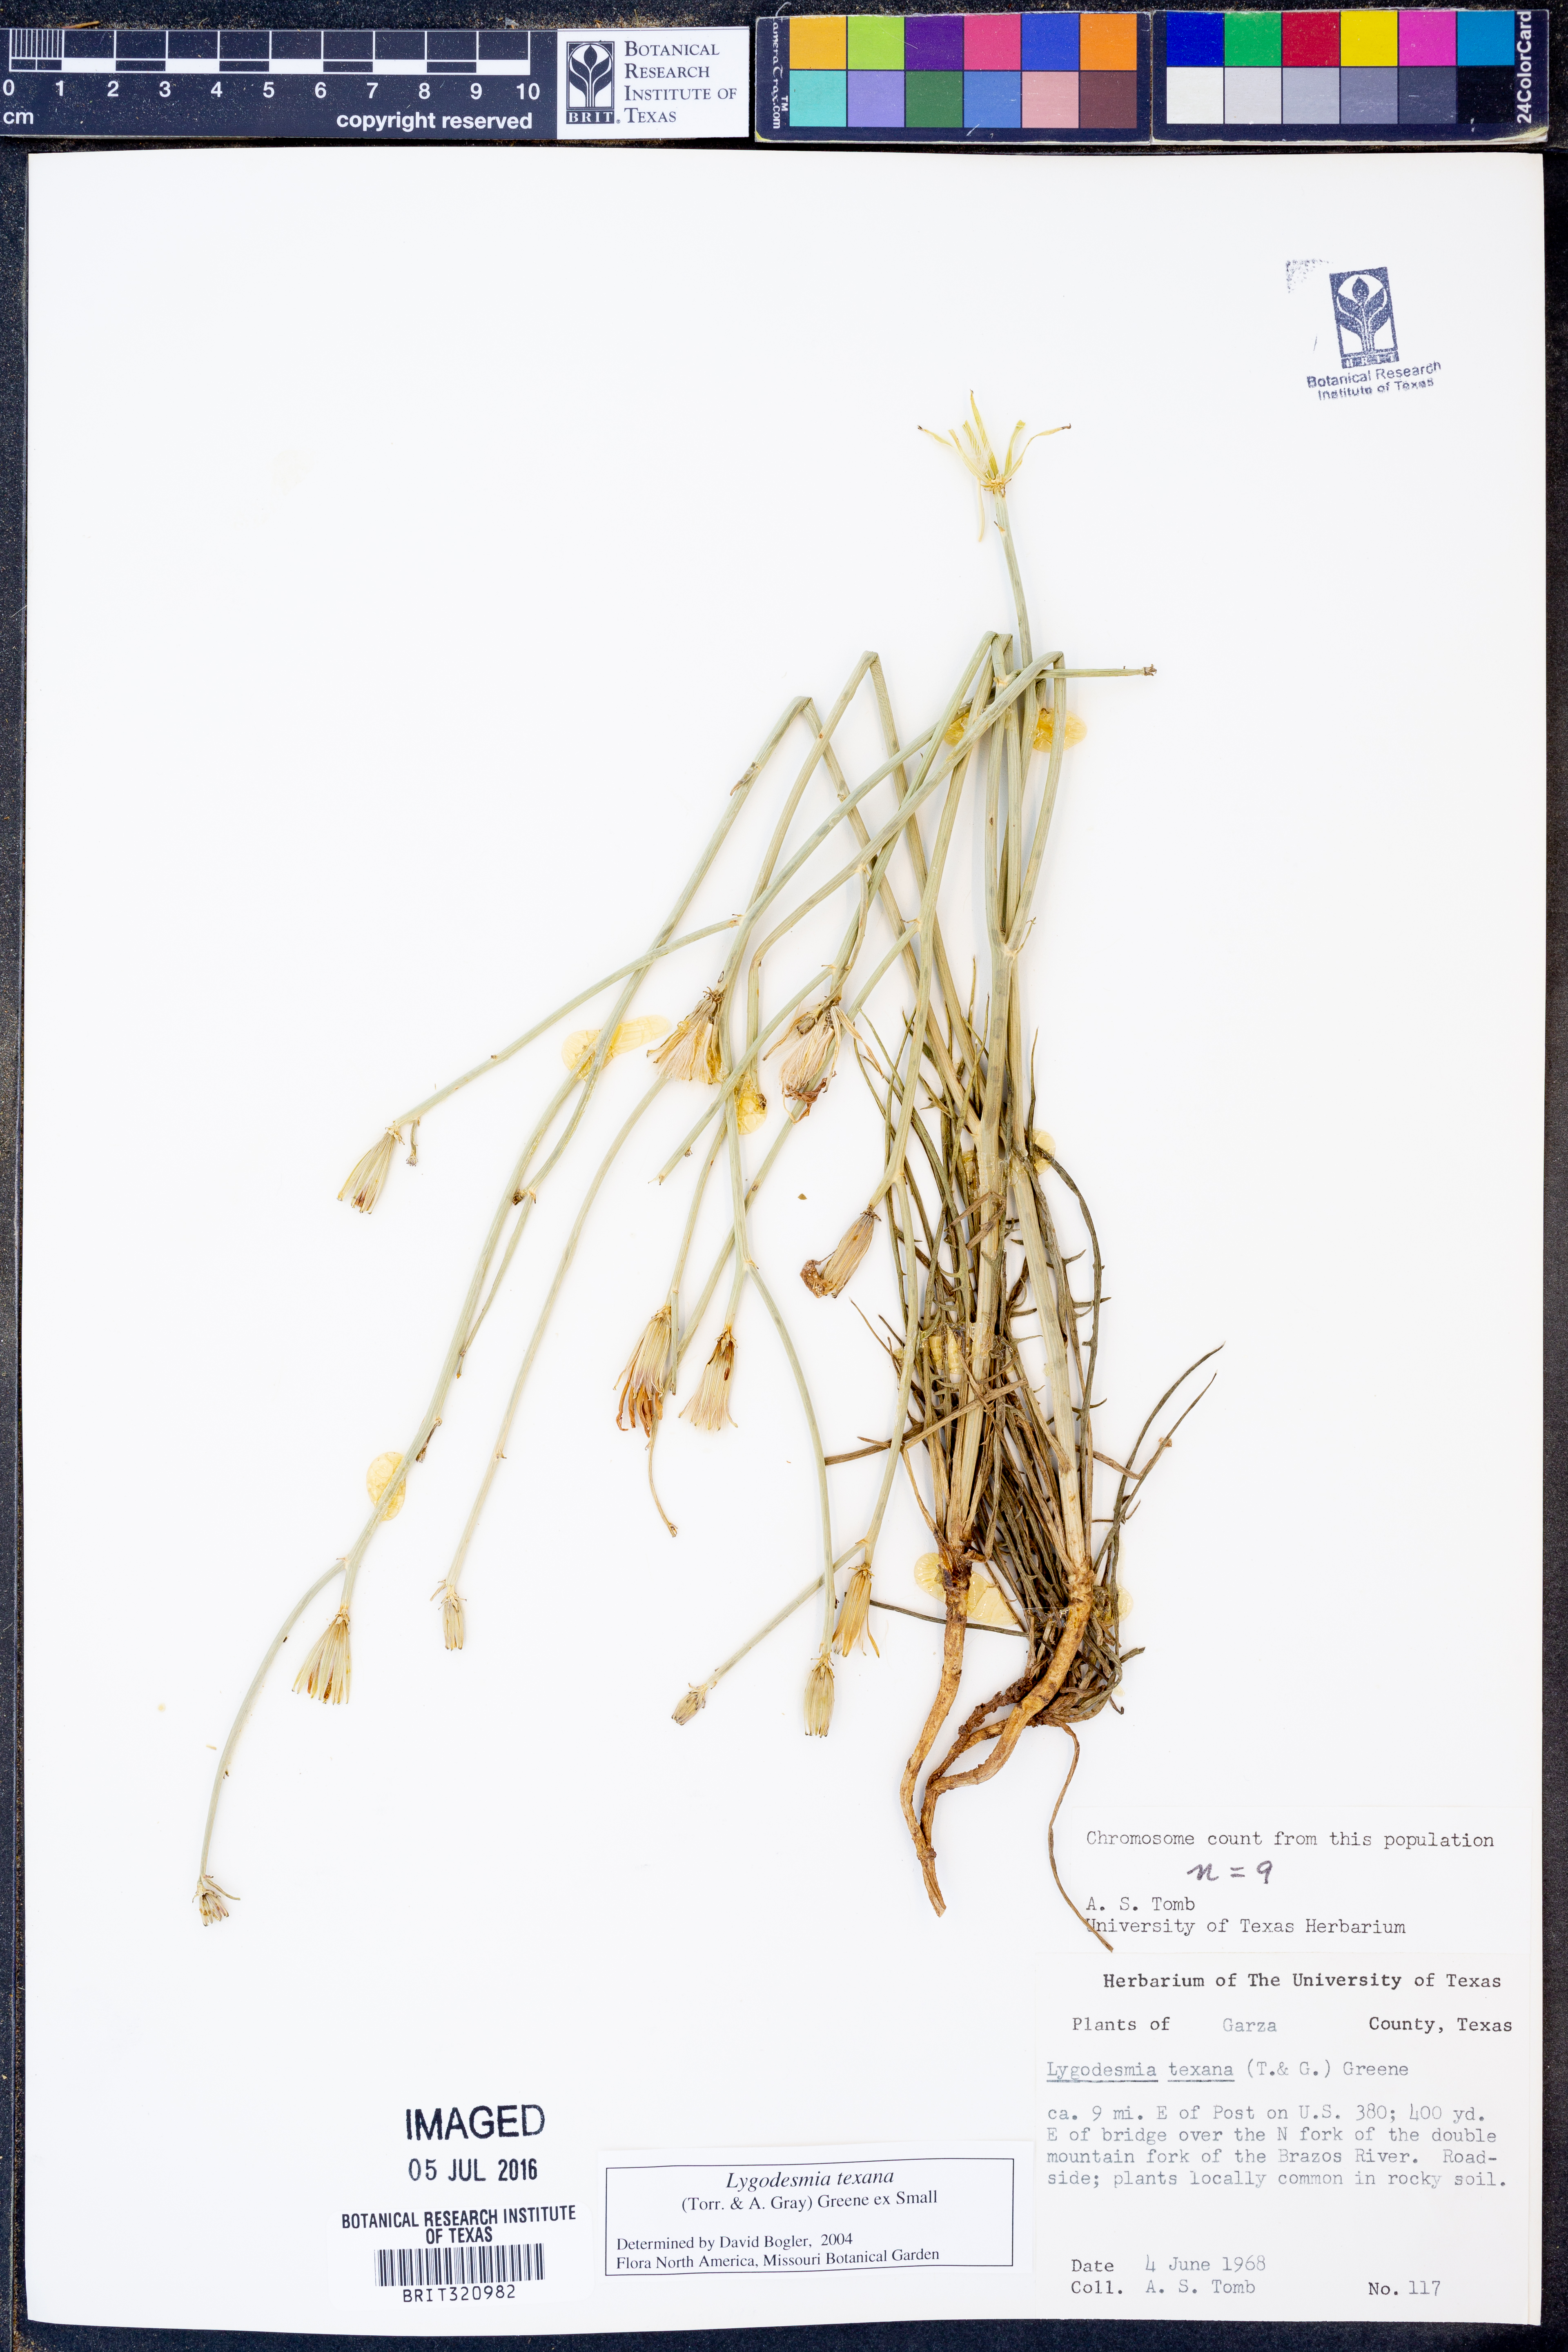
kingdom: Plantae
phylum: Tracheophyta
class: Magnoliopsida
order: Asterales
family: Asteraceae
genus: Lygodesmia
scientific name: Lygodesmia texana
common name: Texas skeleton-plant
